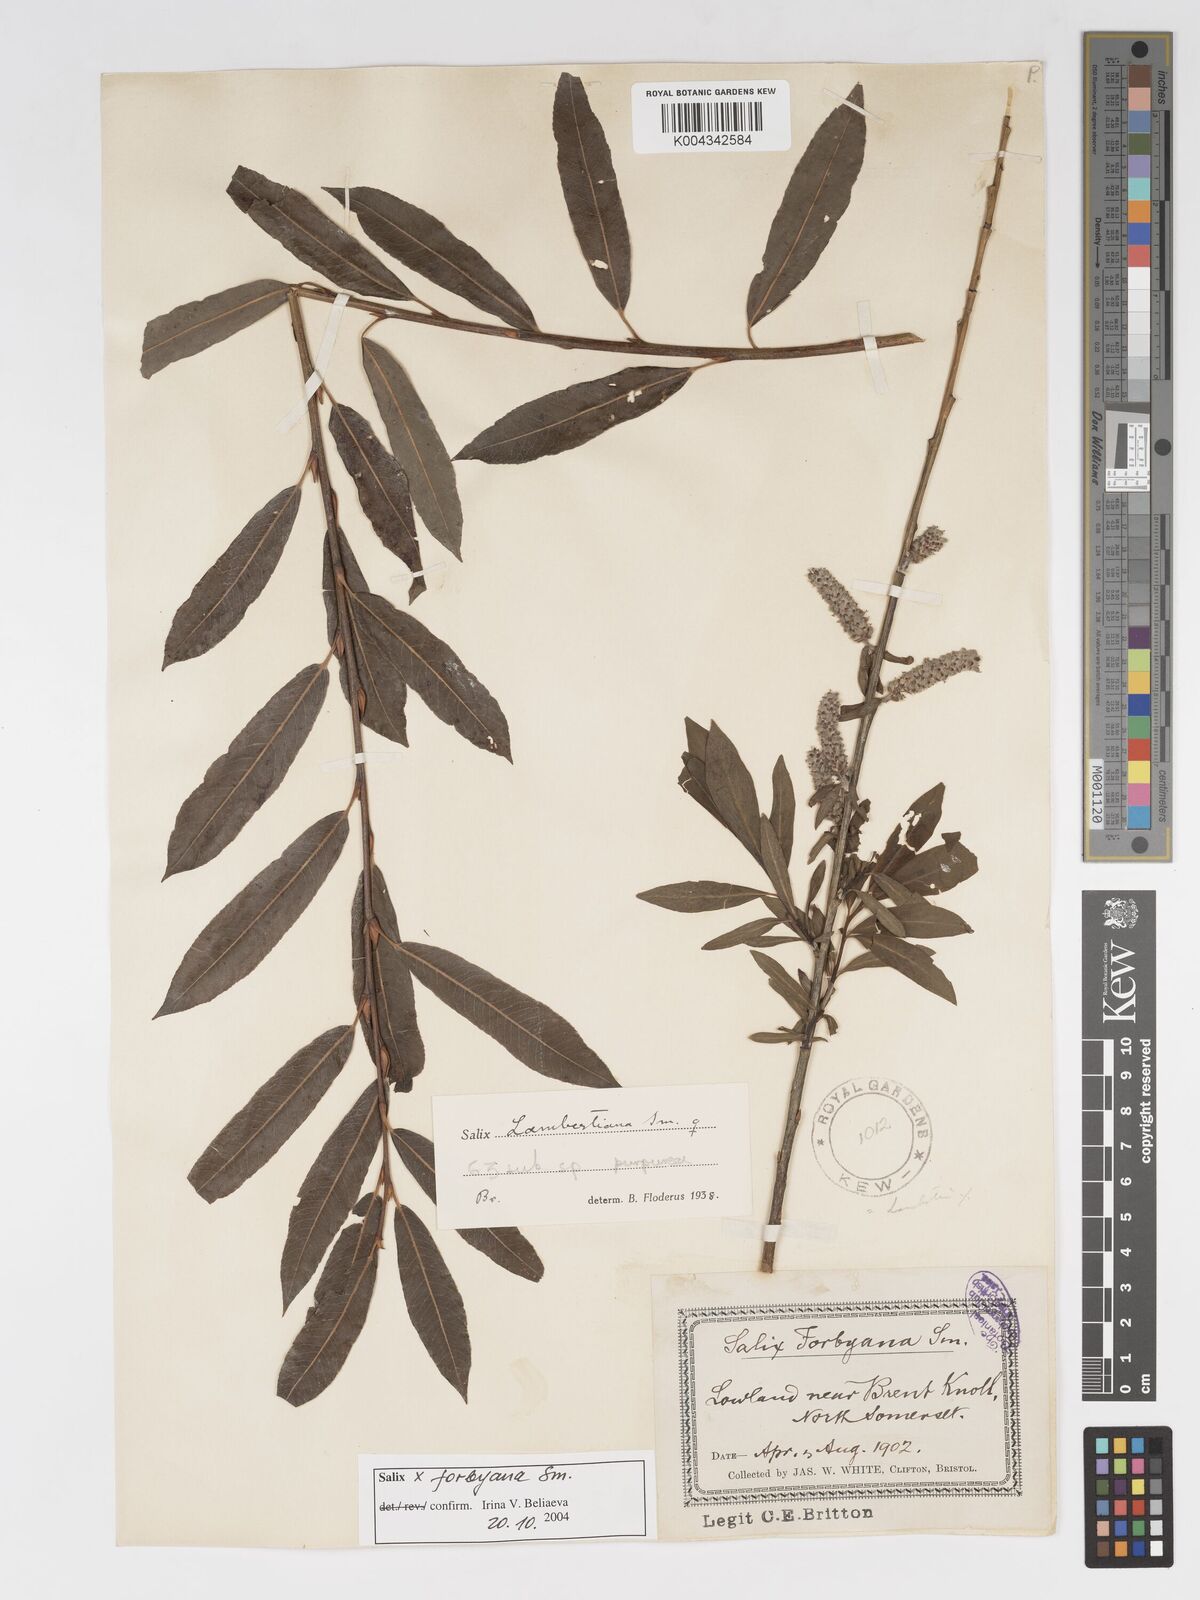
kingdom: Plantae
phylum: Tracheophyta
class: Magnoliopsida
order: Malpighiales
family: Salicaceae
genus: Salix
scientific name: Salix cinerea
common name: Common sallow
